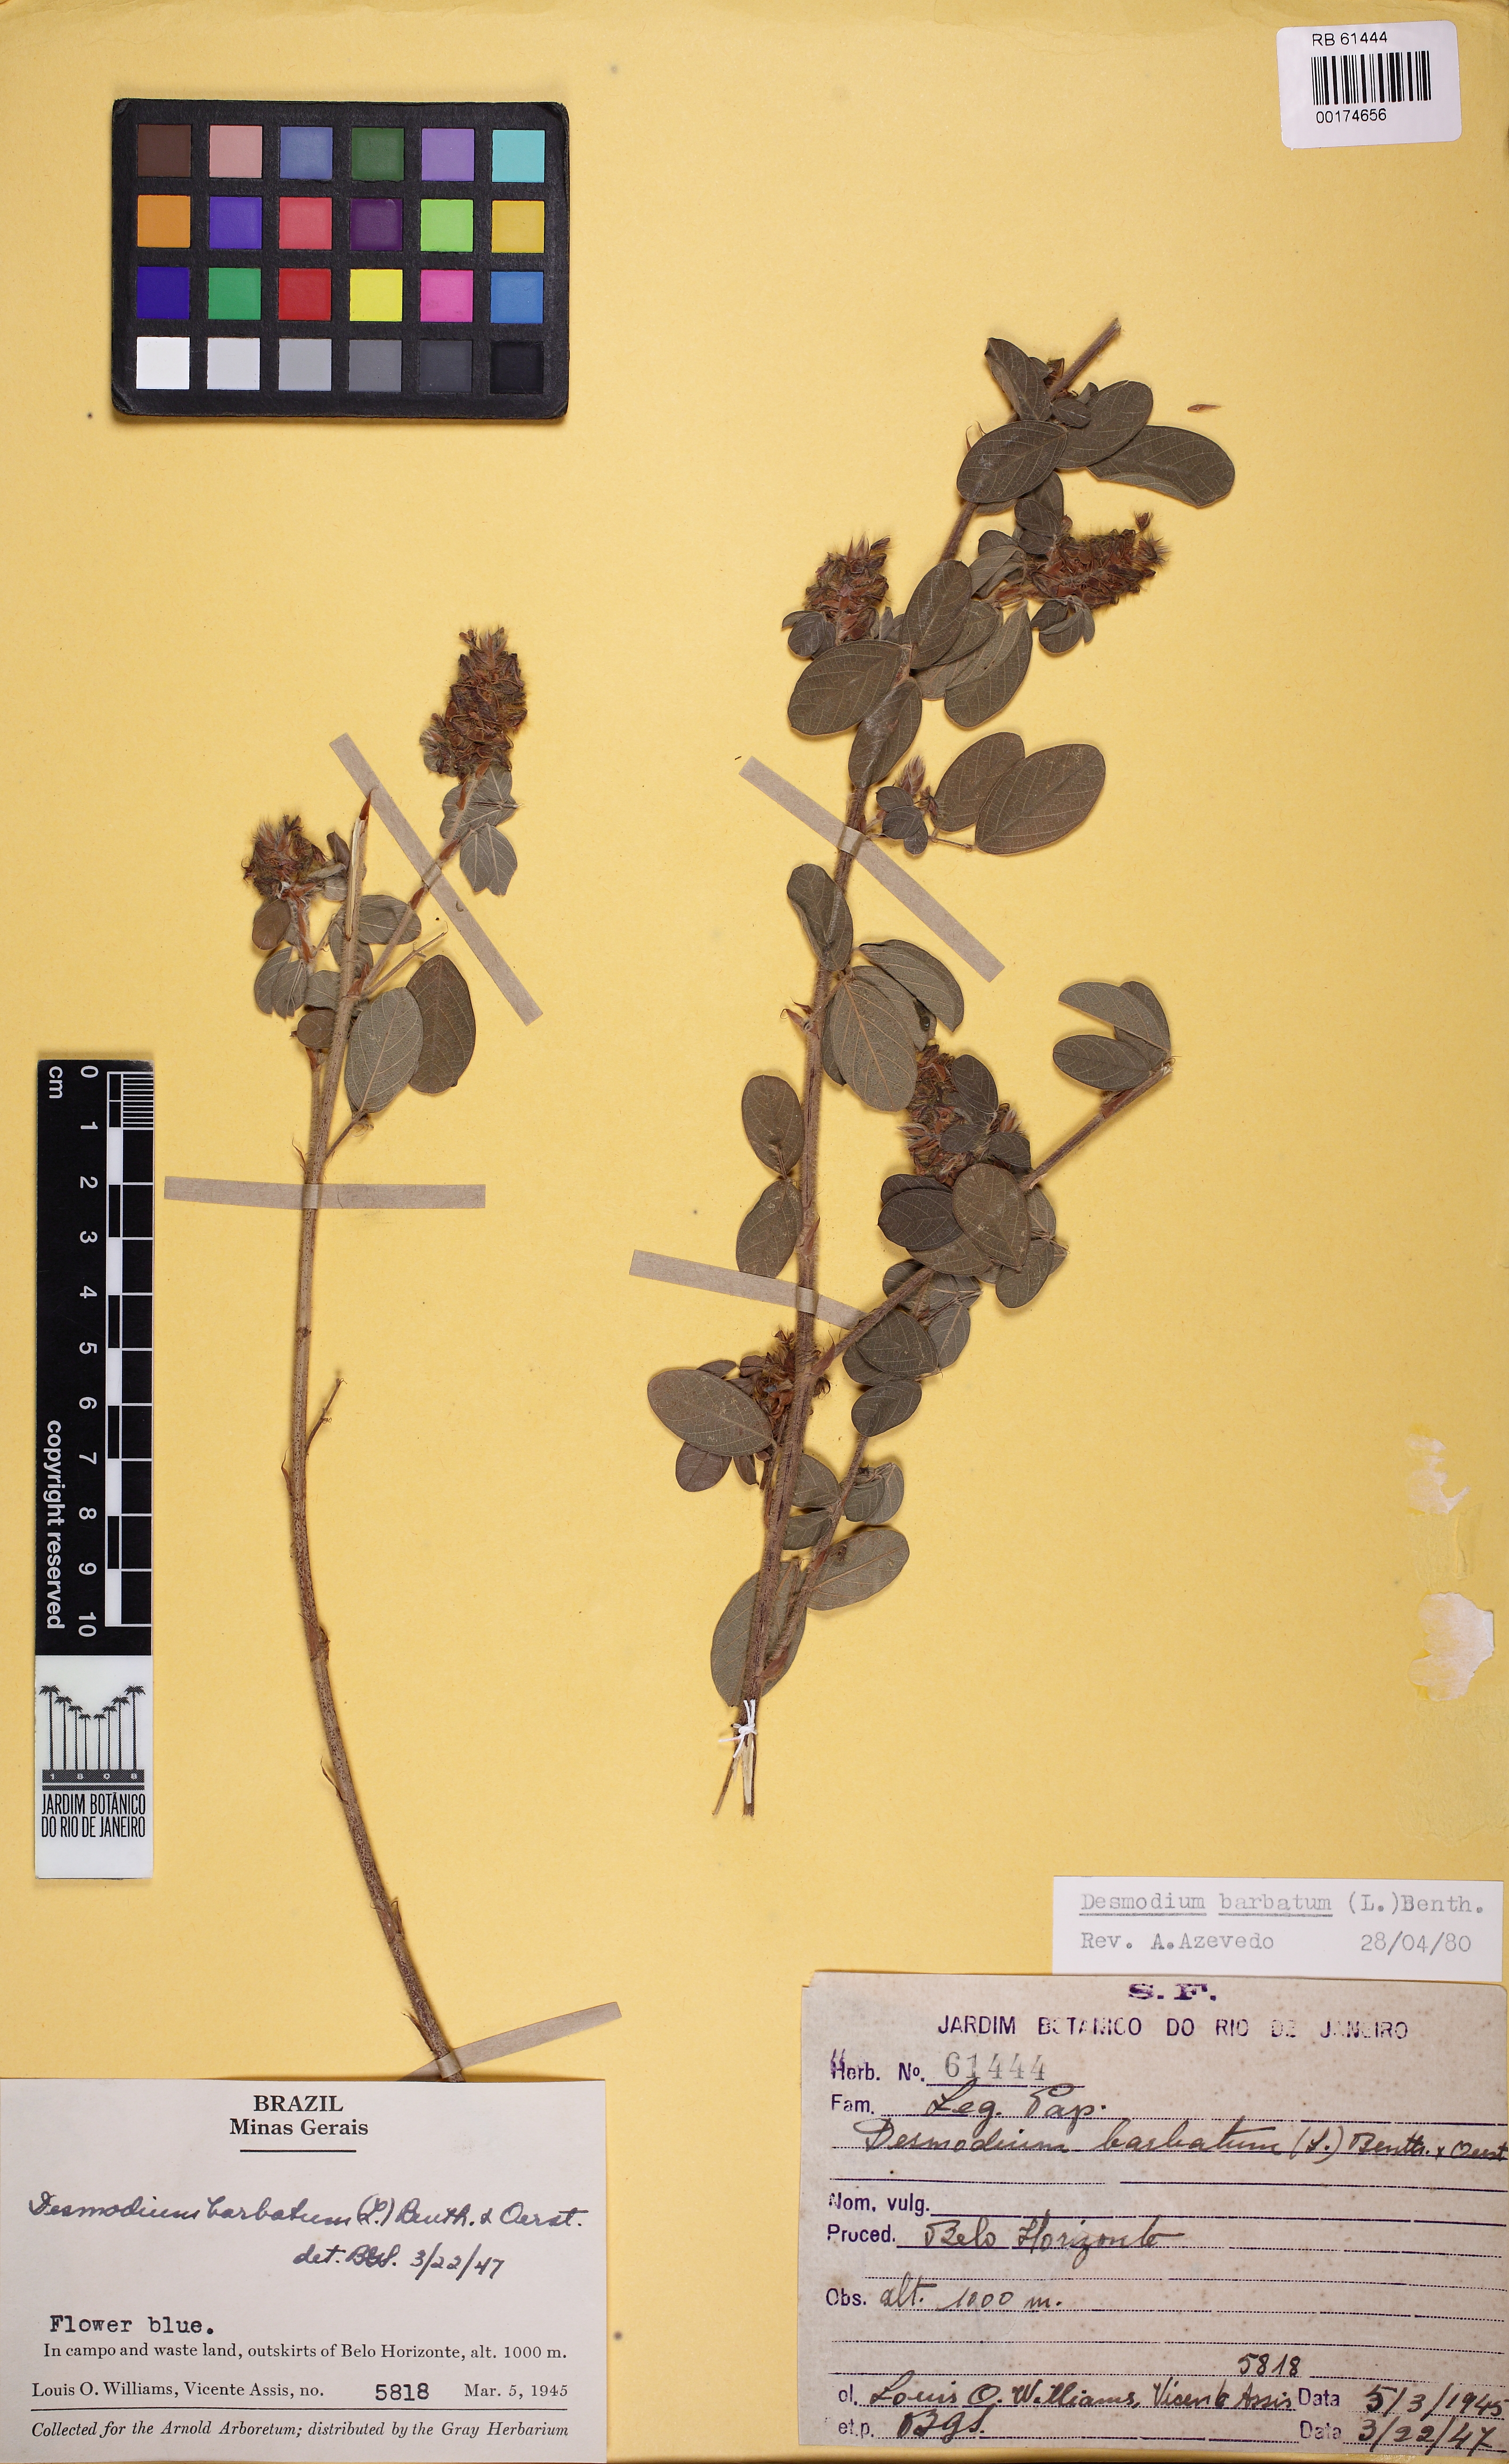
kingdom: Plantae
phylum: Tracheophyta
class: Magnoliopsida
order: Fabales
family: Fabaceae
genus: Grona
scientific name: Grona barbata
